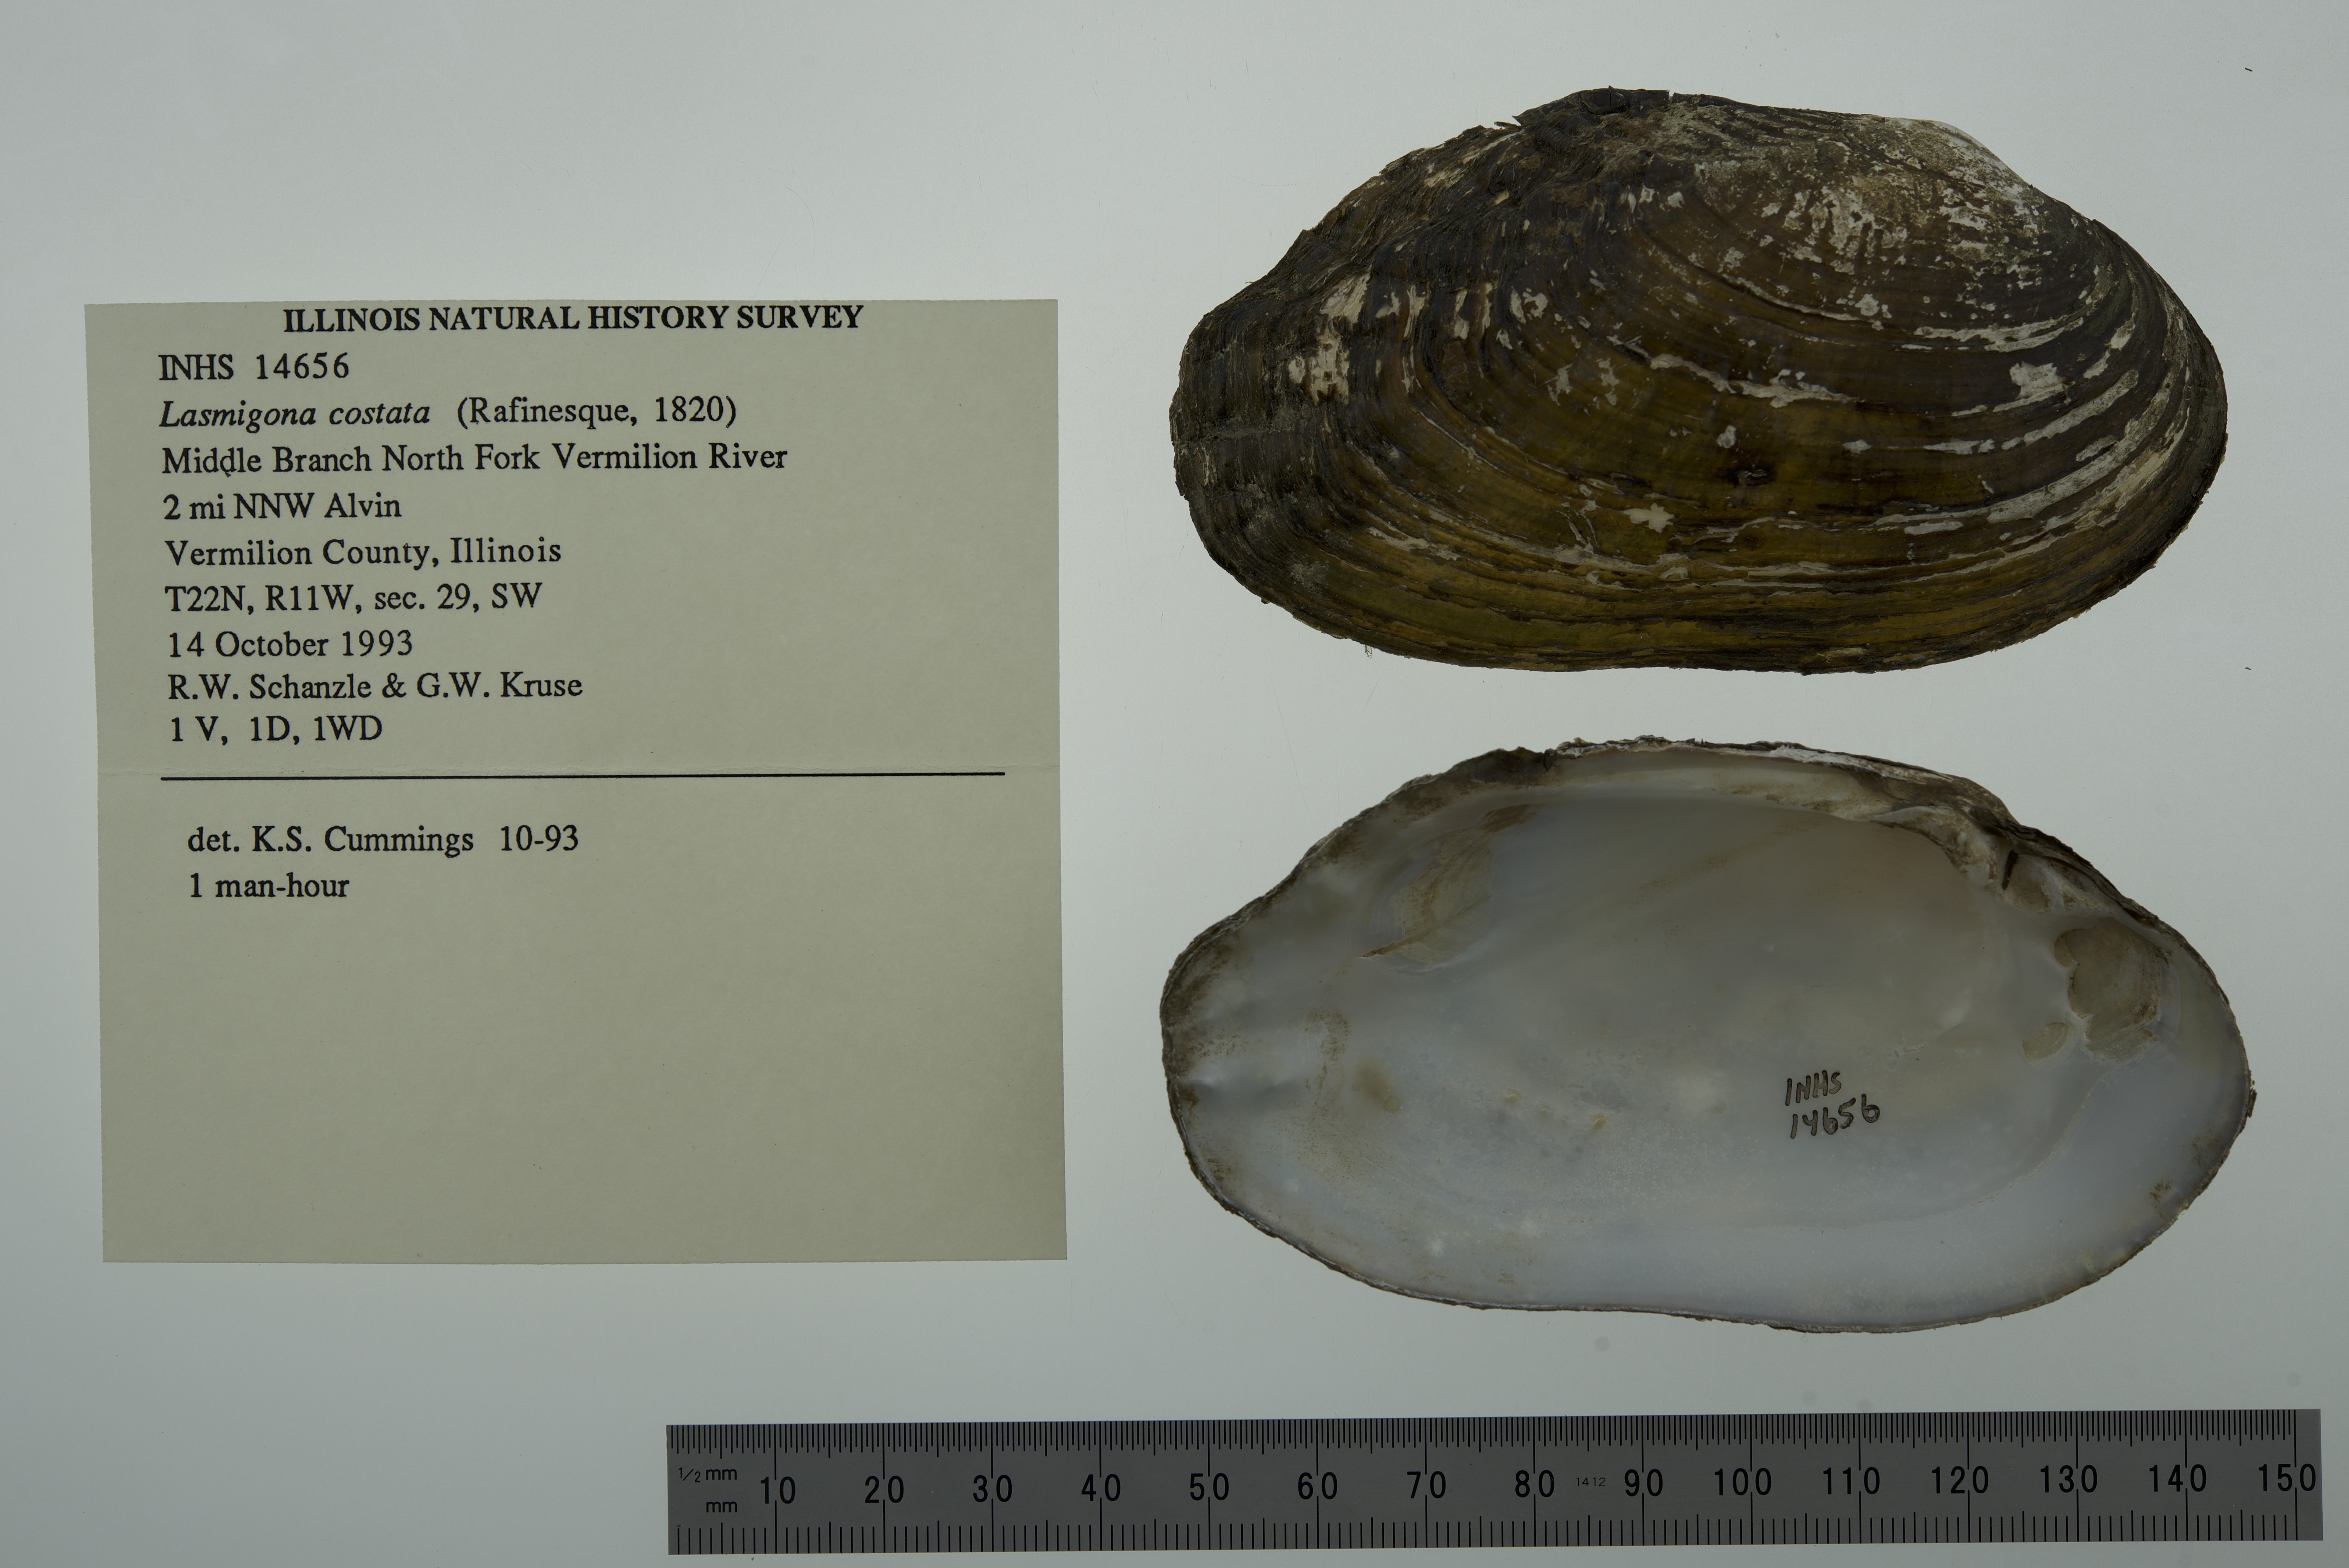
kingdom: Animalia
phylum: Mollusca
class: Bivalvia
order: Unionida
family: Unionidae
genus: Lasmigona
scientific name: Lasmigona costata
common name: Flutedshell
